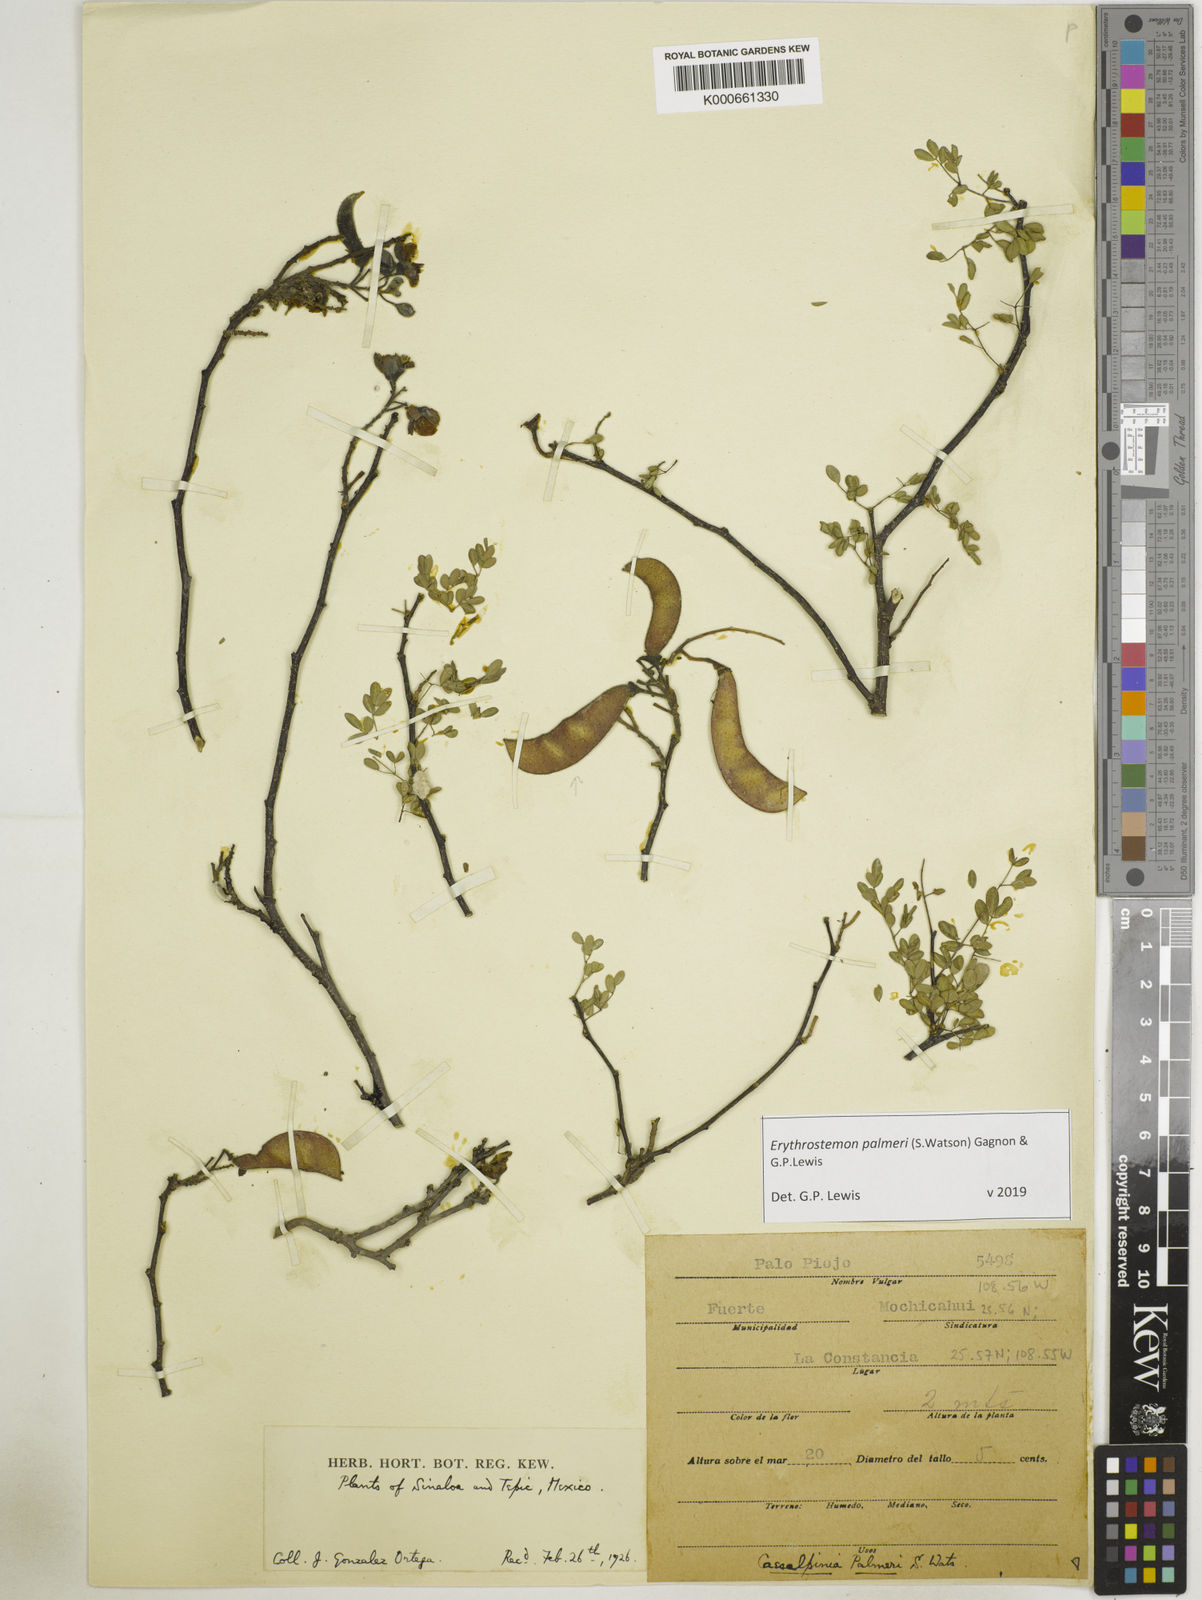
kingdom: Plantae
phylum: Tracheophyta
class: Magnoliopsida
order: Fabales
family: Fabaceae
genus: Erythrostemon
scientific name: Erythrostemon palmeri
